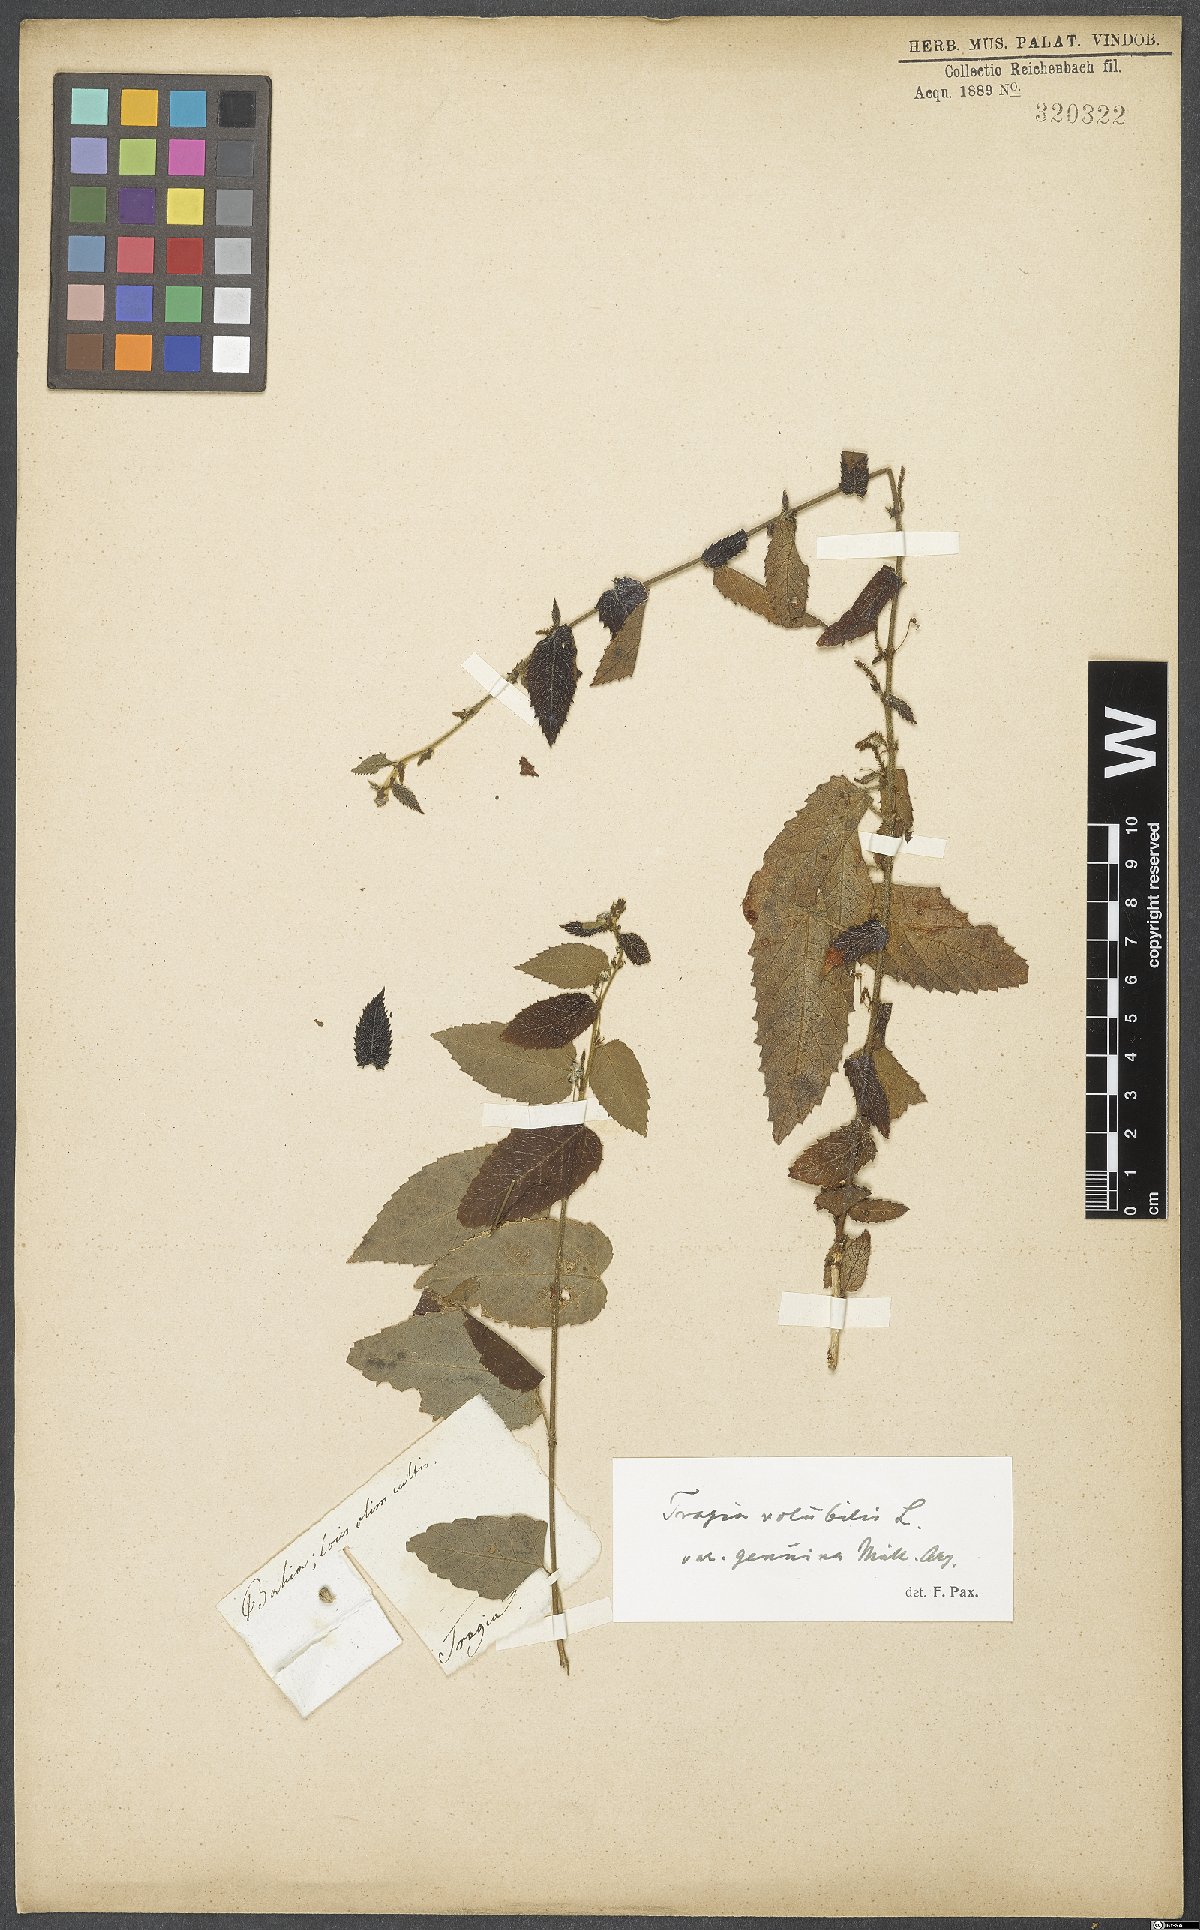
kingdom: Plantae
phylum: Tracheophyta
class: Magnoliopsida
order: Malpighiales
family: Euphorbiaceae
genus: Tragia
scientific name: Tragia volubilis
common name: Twining cow-itch
